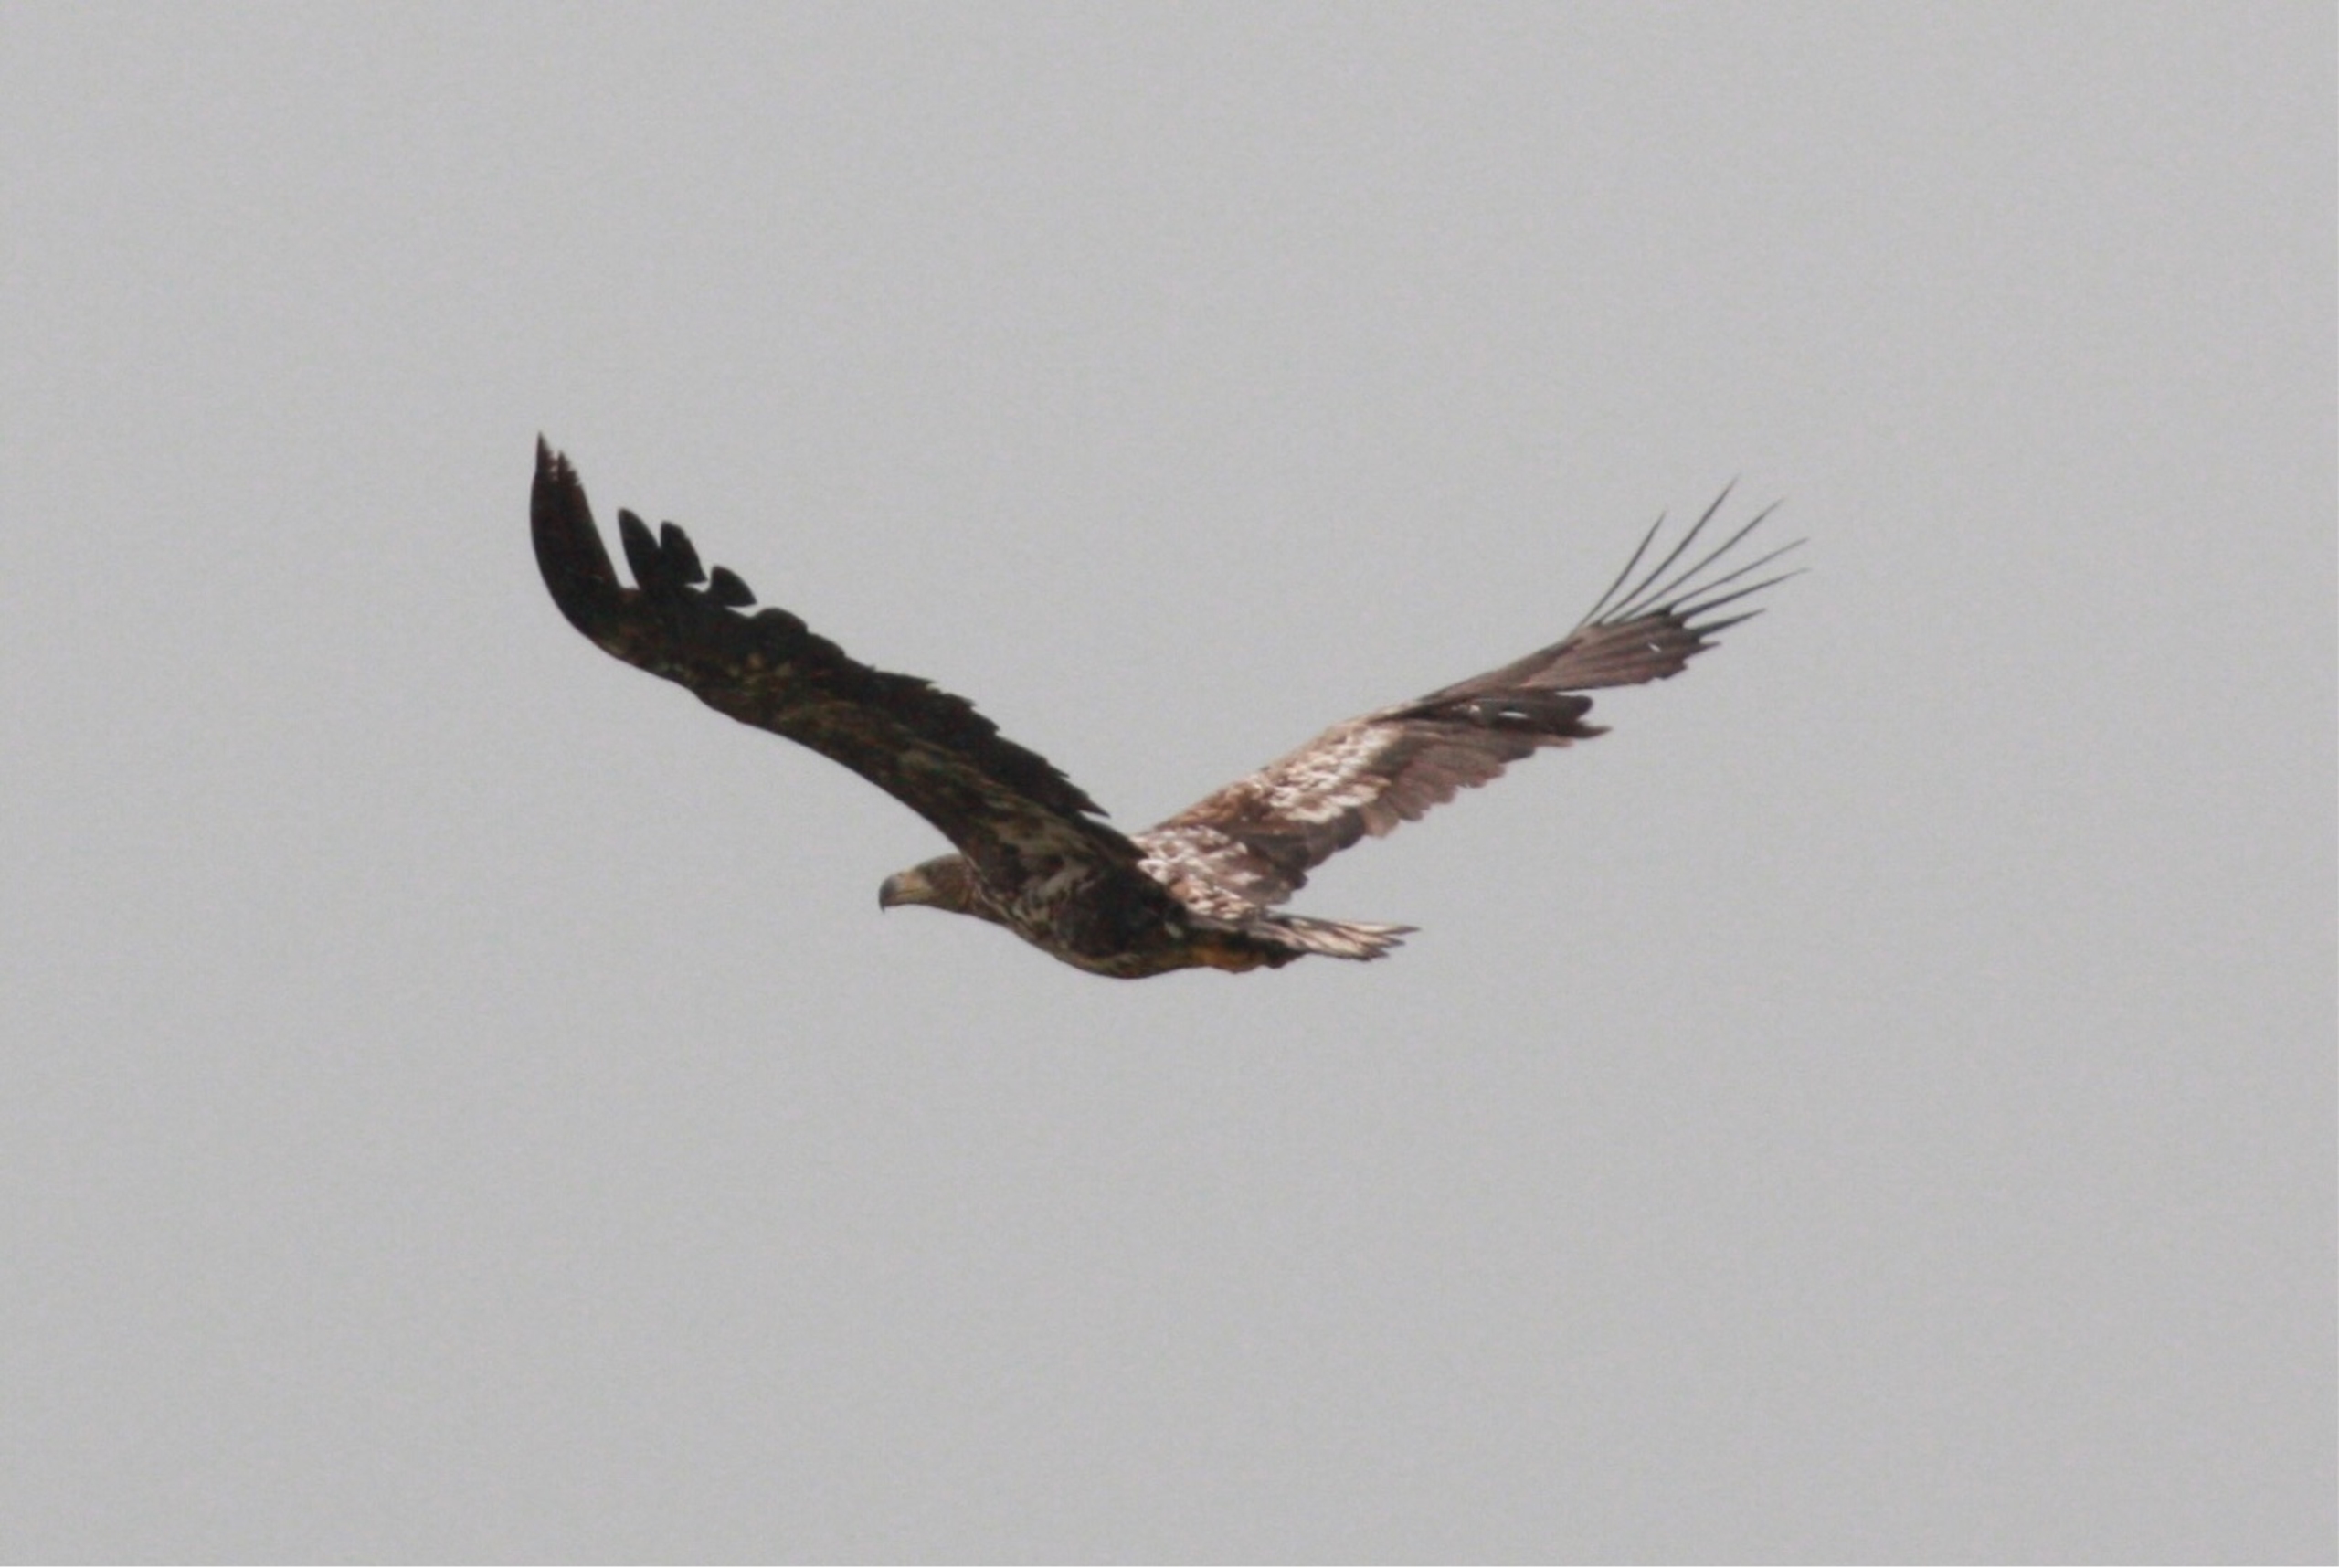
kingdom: Animalia
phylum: Chordata
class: Aves
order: Accipitriformes
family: Accipitridae
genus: Haliaeetus
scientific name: Haliaeetus albicilla
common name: Havørn
